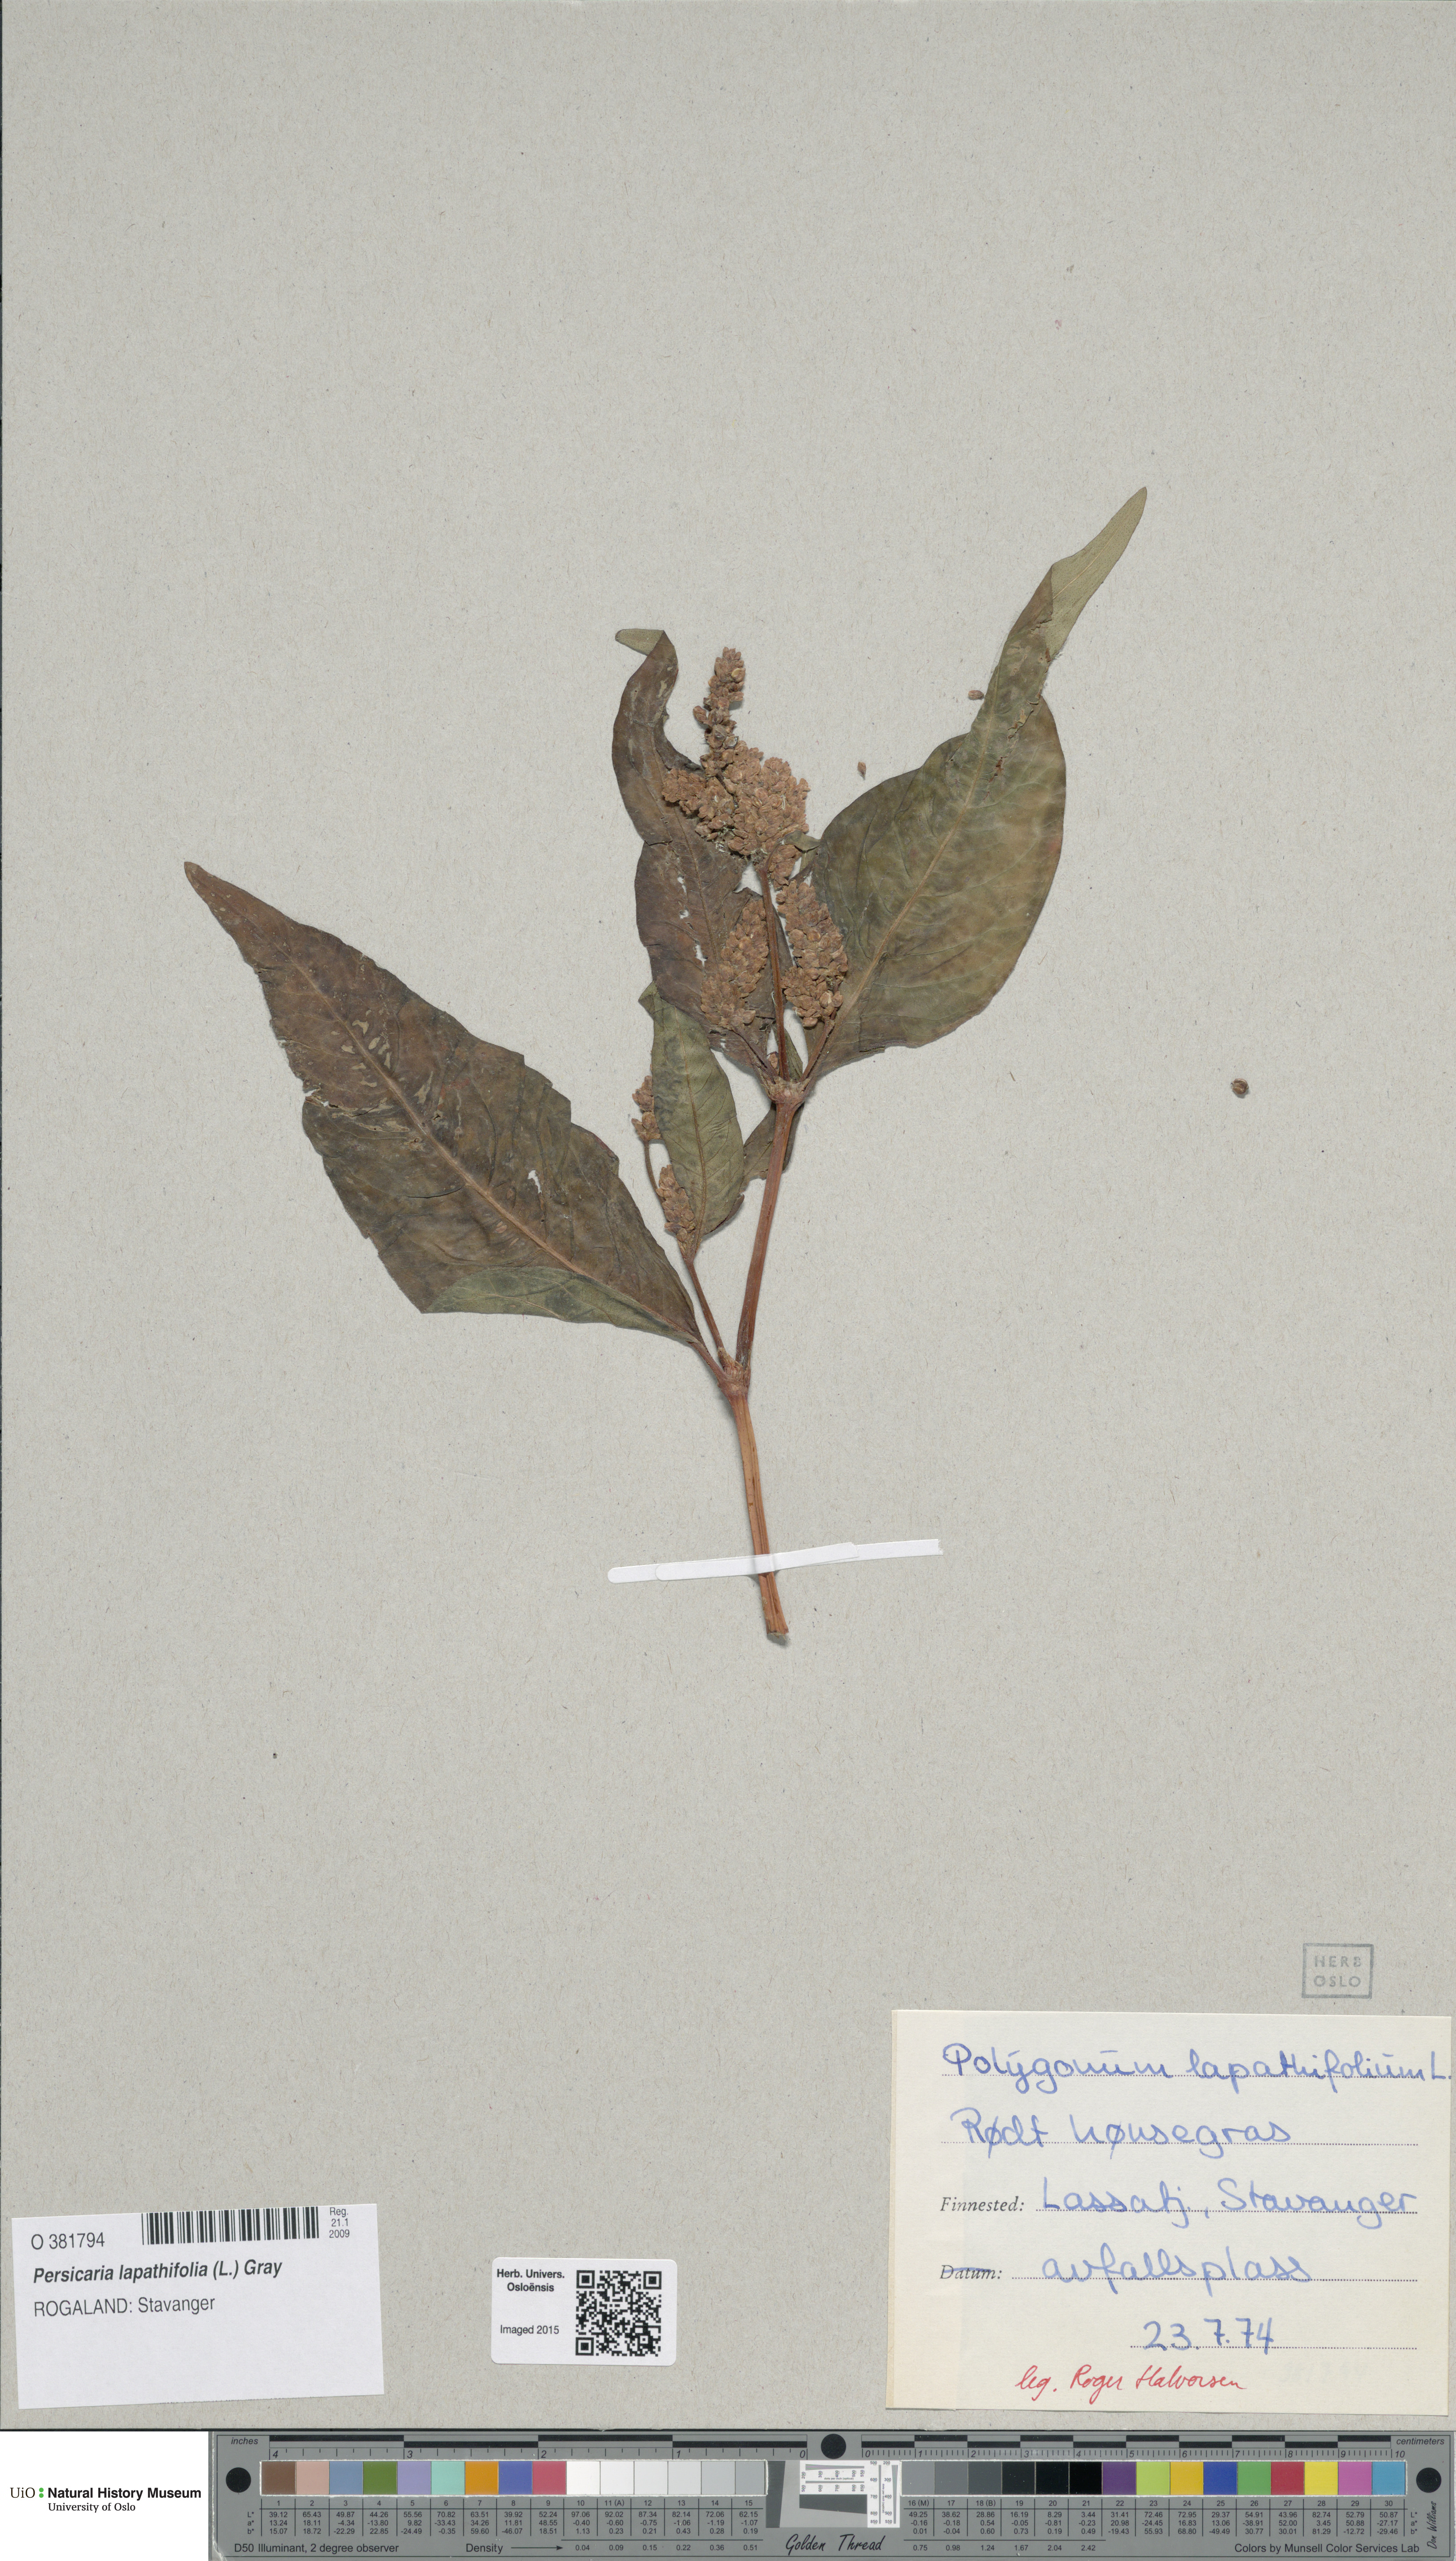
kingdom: Plantae
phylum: Tracheophyta
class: Magnoliopsida
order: Caryophyllales
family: Polygonaceae
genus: Persicaria
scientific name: Persicaria lapathifolia
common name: Curlytop knotweed
